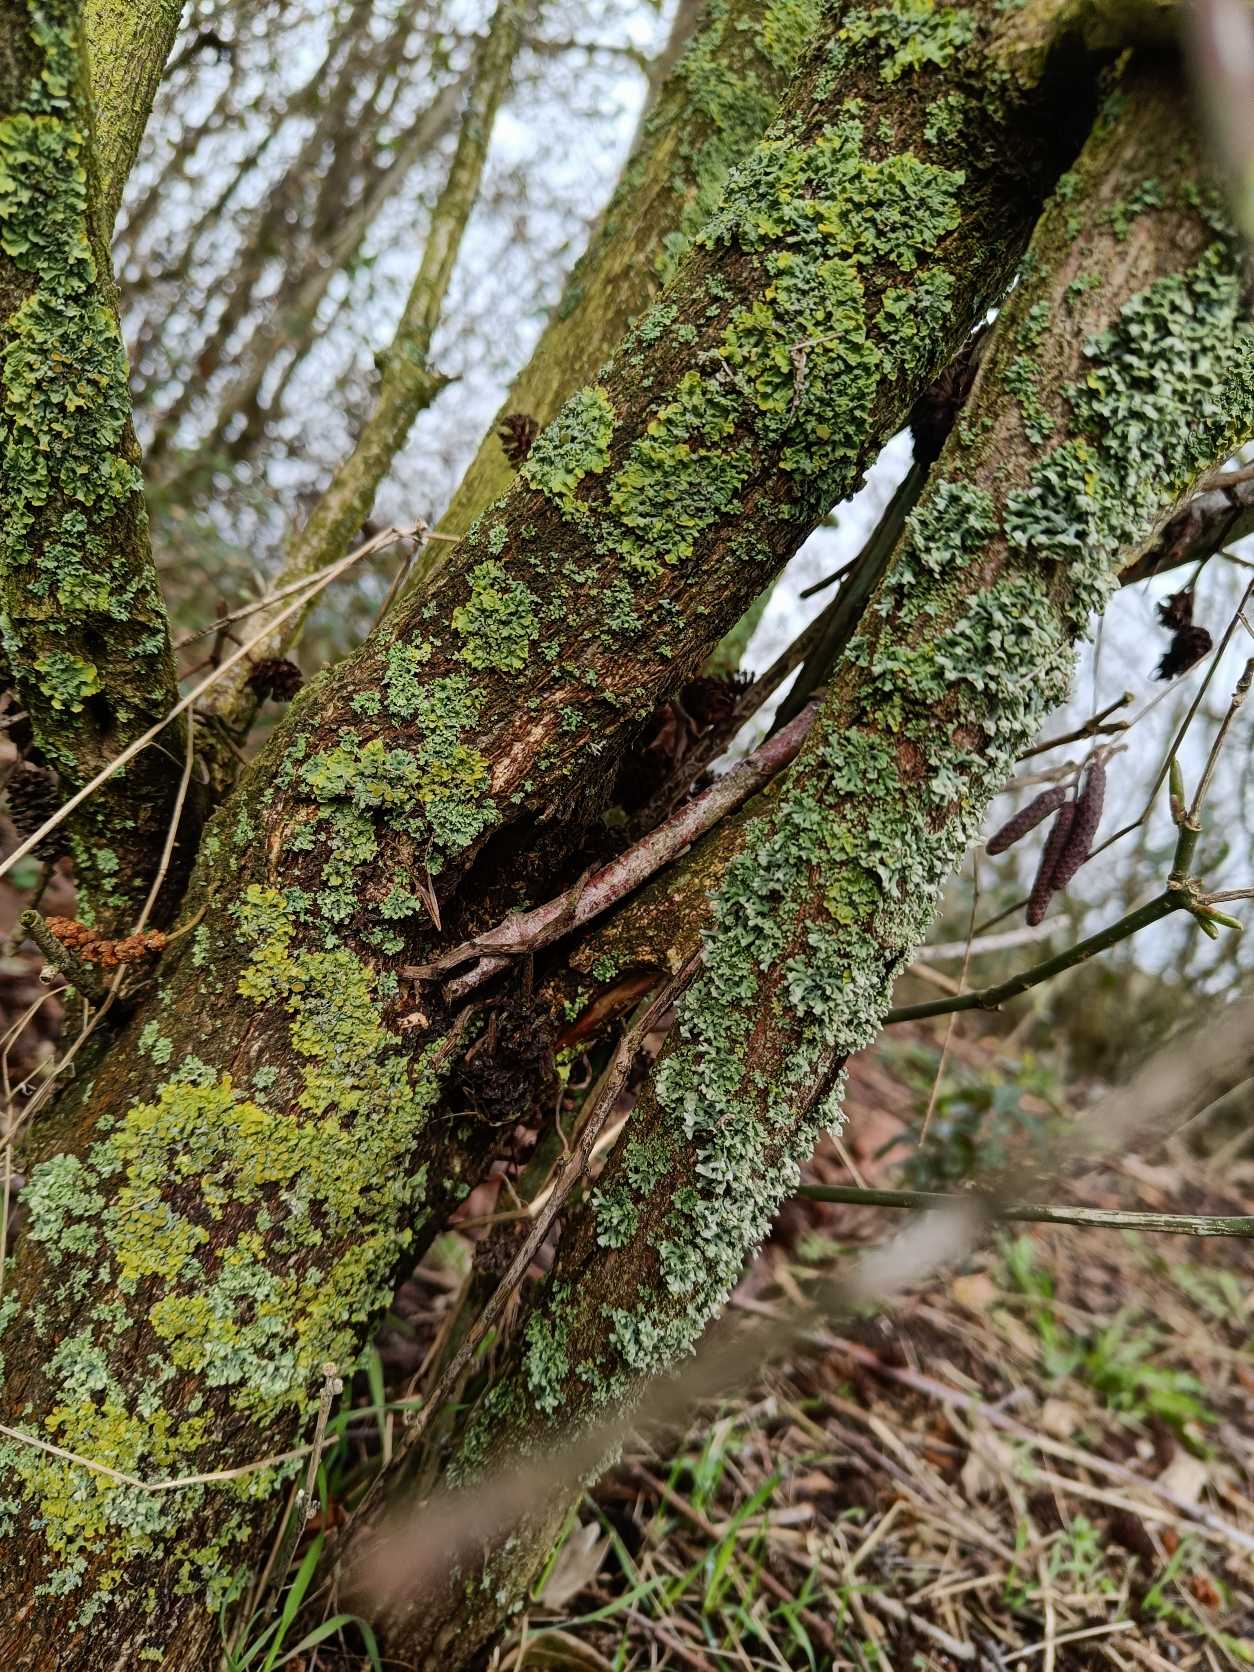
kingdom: Fungi
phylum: Ascomycota
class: Lecanoromycetes
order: Teloschistales
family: Teloschistaceae
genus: Xanthoria
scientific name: Xanthoria parietina
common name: Almindelig væggelav
